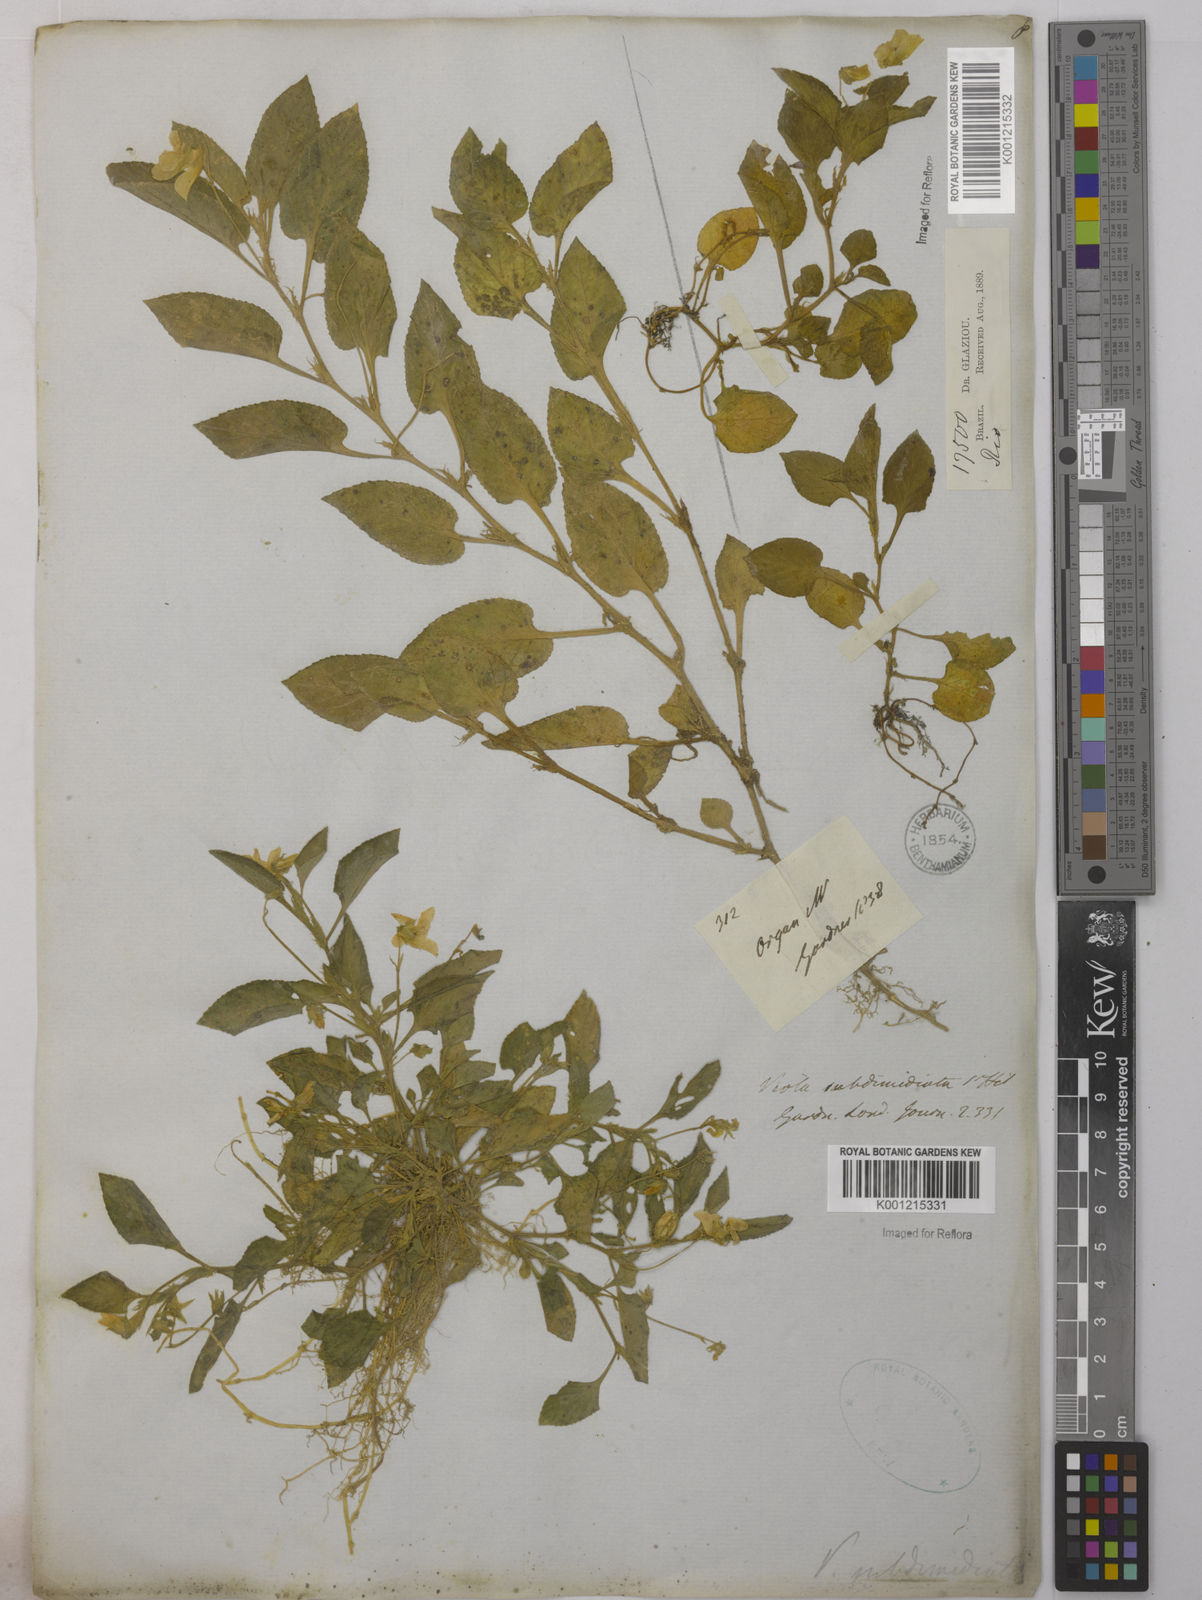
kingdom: Plantae
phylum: Tracheophyta
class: Magnoliopsida
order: Malpighiales
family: Violaceae
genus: Viola
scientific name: Viola subdimidiata
